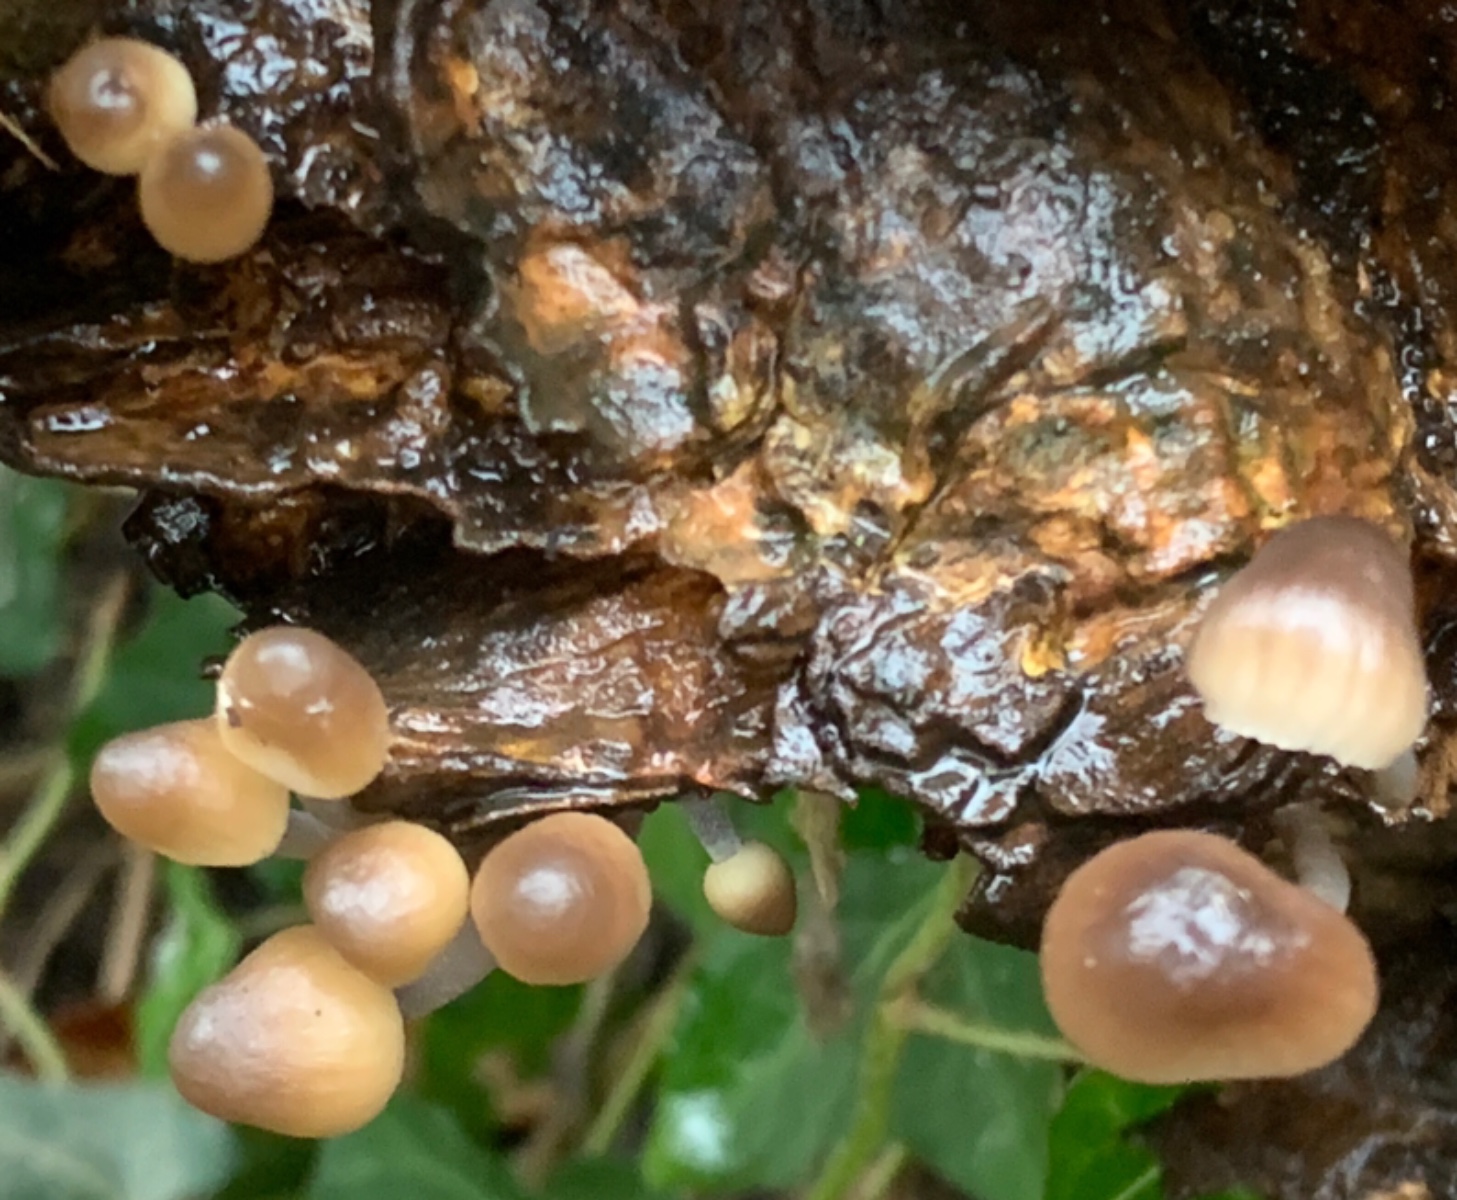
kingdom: Fungi
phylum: Basidiomycota
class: Agaricomycetes
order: Agaricales
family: Mycenaceae
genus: Mycena
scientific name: Mycena inclinata
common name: nikkende huesvamp
